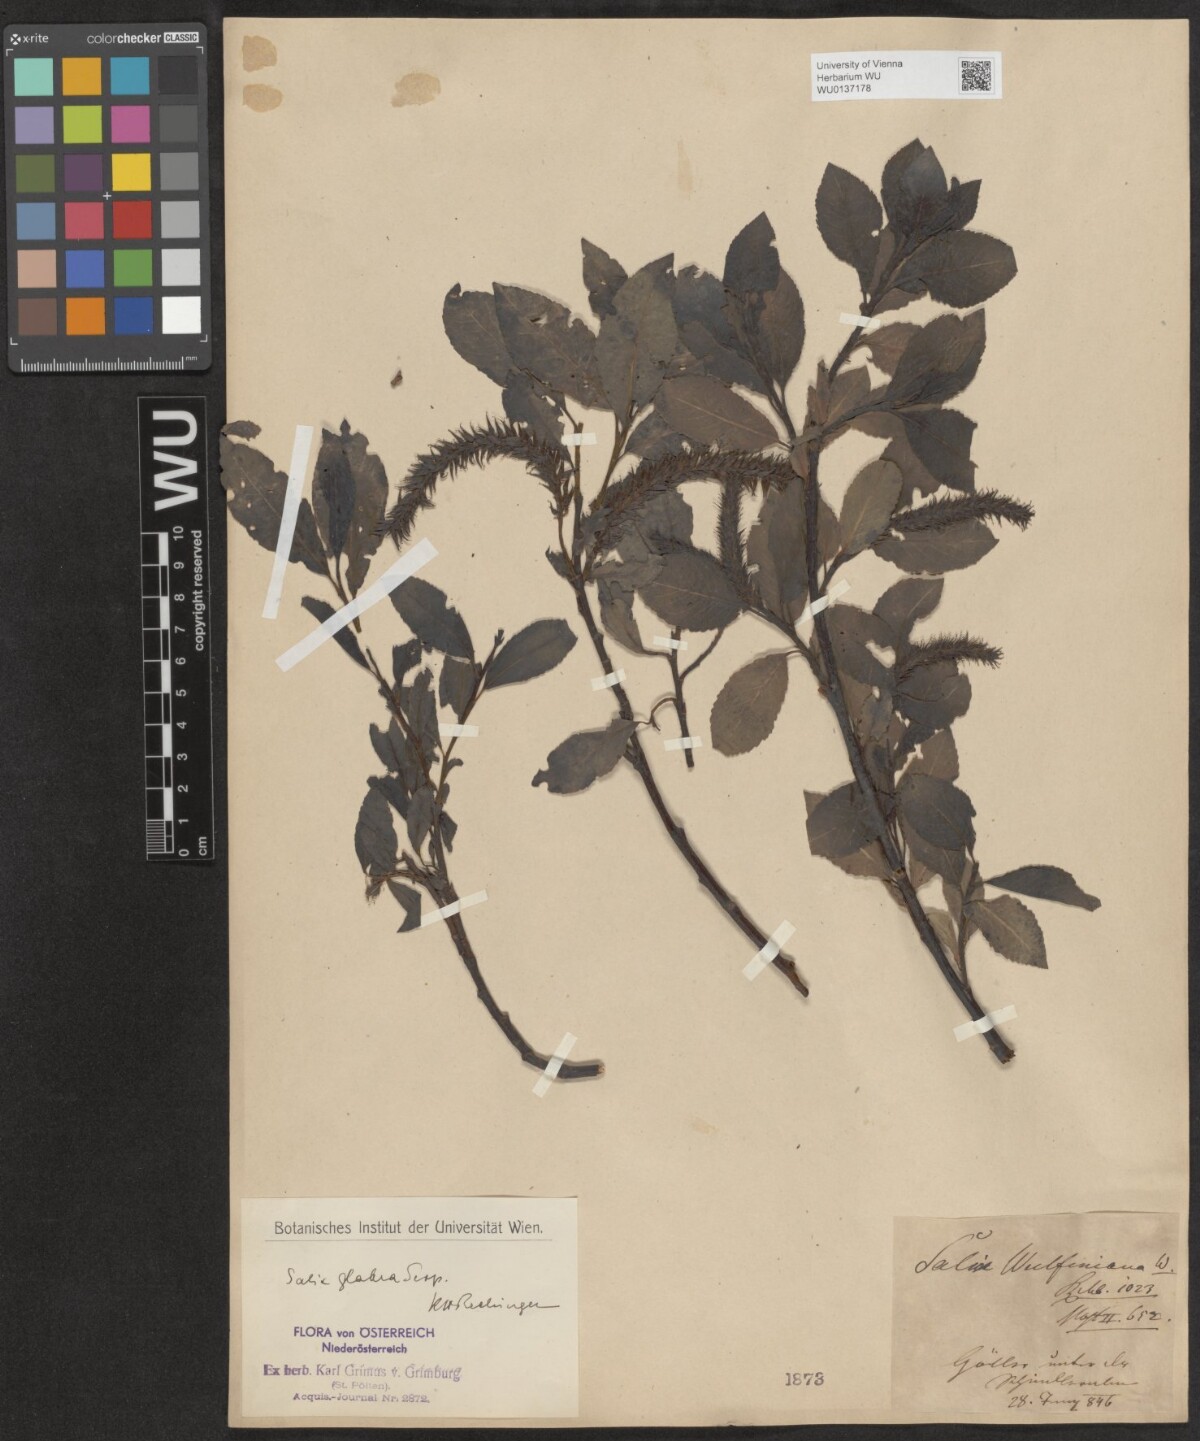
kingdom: Plantae
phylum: Tracheophyta
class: Magnoliopsida
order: Malpighiales
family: Salicaceae
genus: Salix
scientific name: Salix glabra
